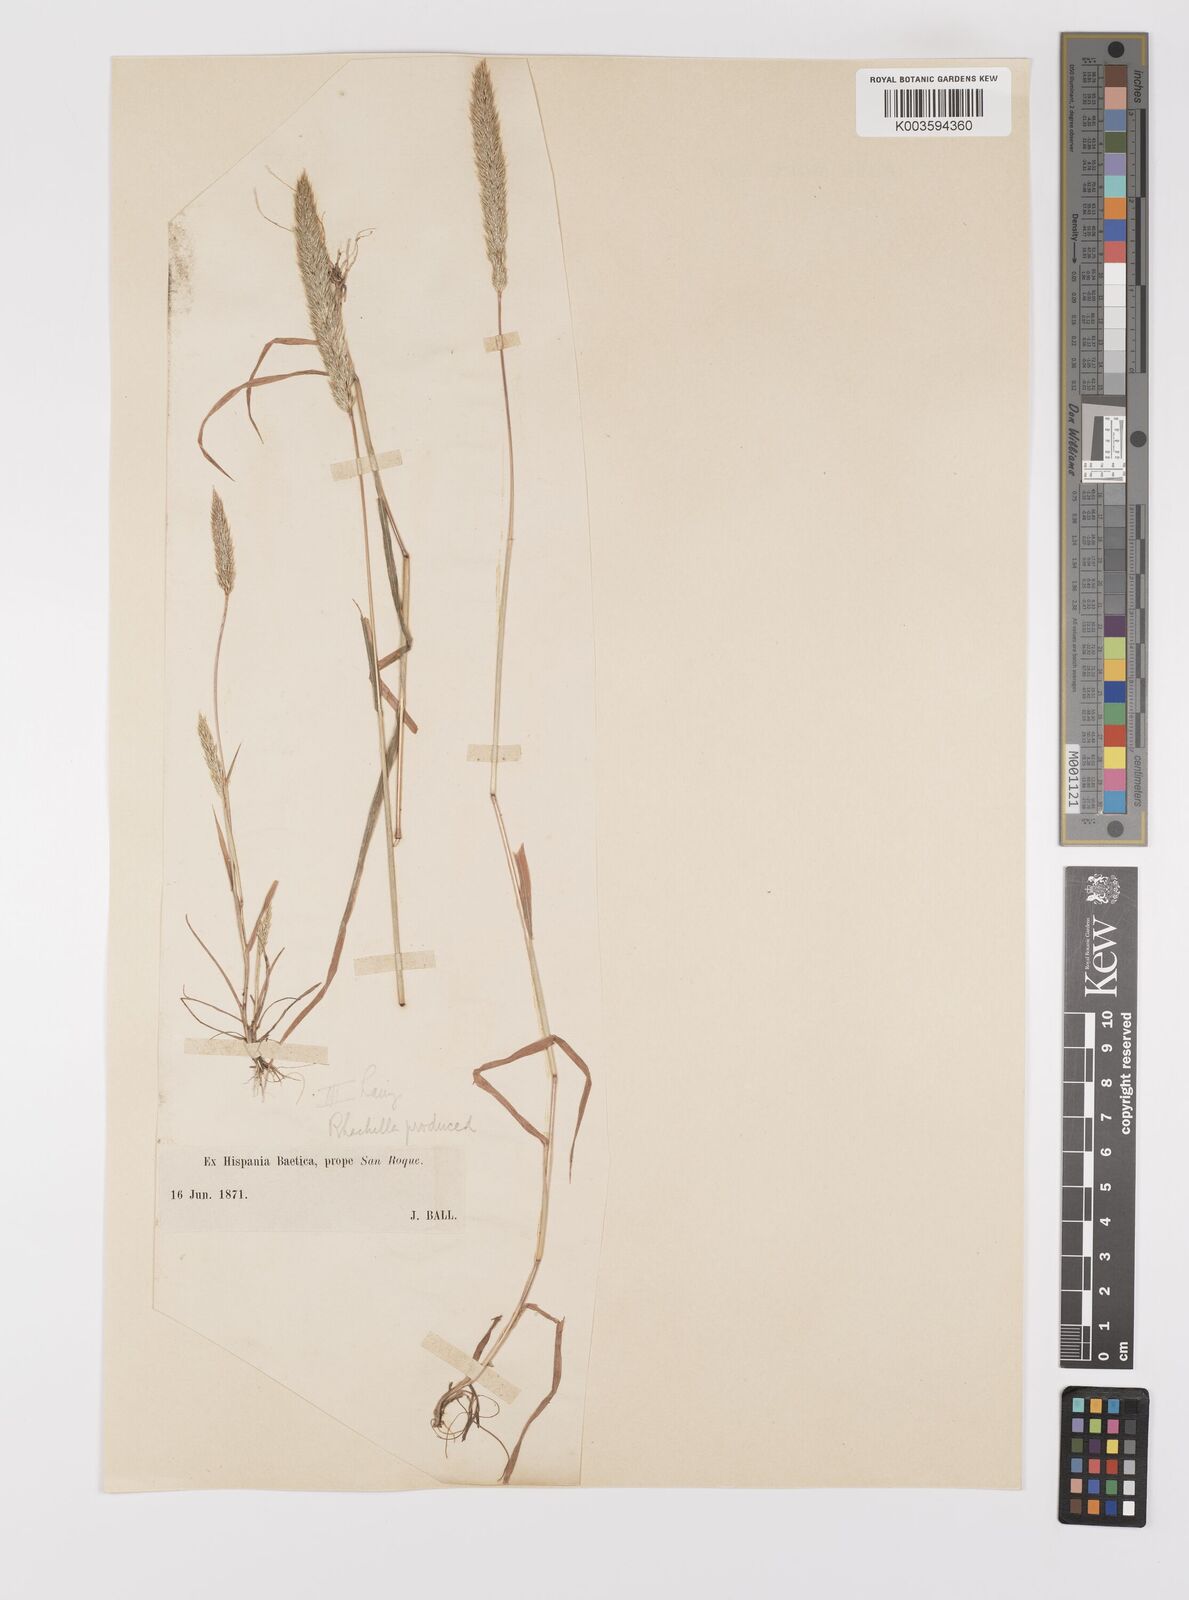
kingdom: Plantae
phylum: Tracheophyta
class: Liliopsida
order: Poales
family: Poaceae
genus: Gastridium
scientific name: Gastridium phleoides
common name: Nit grass
